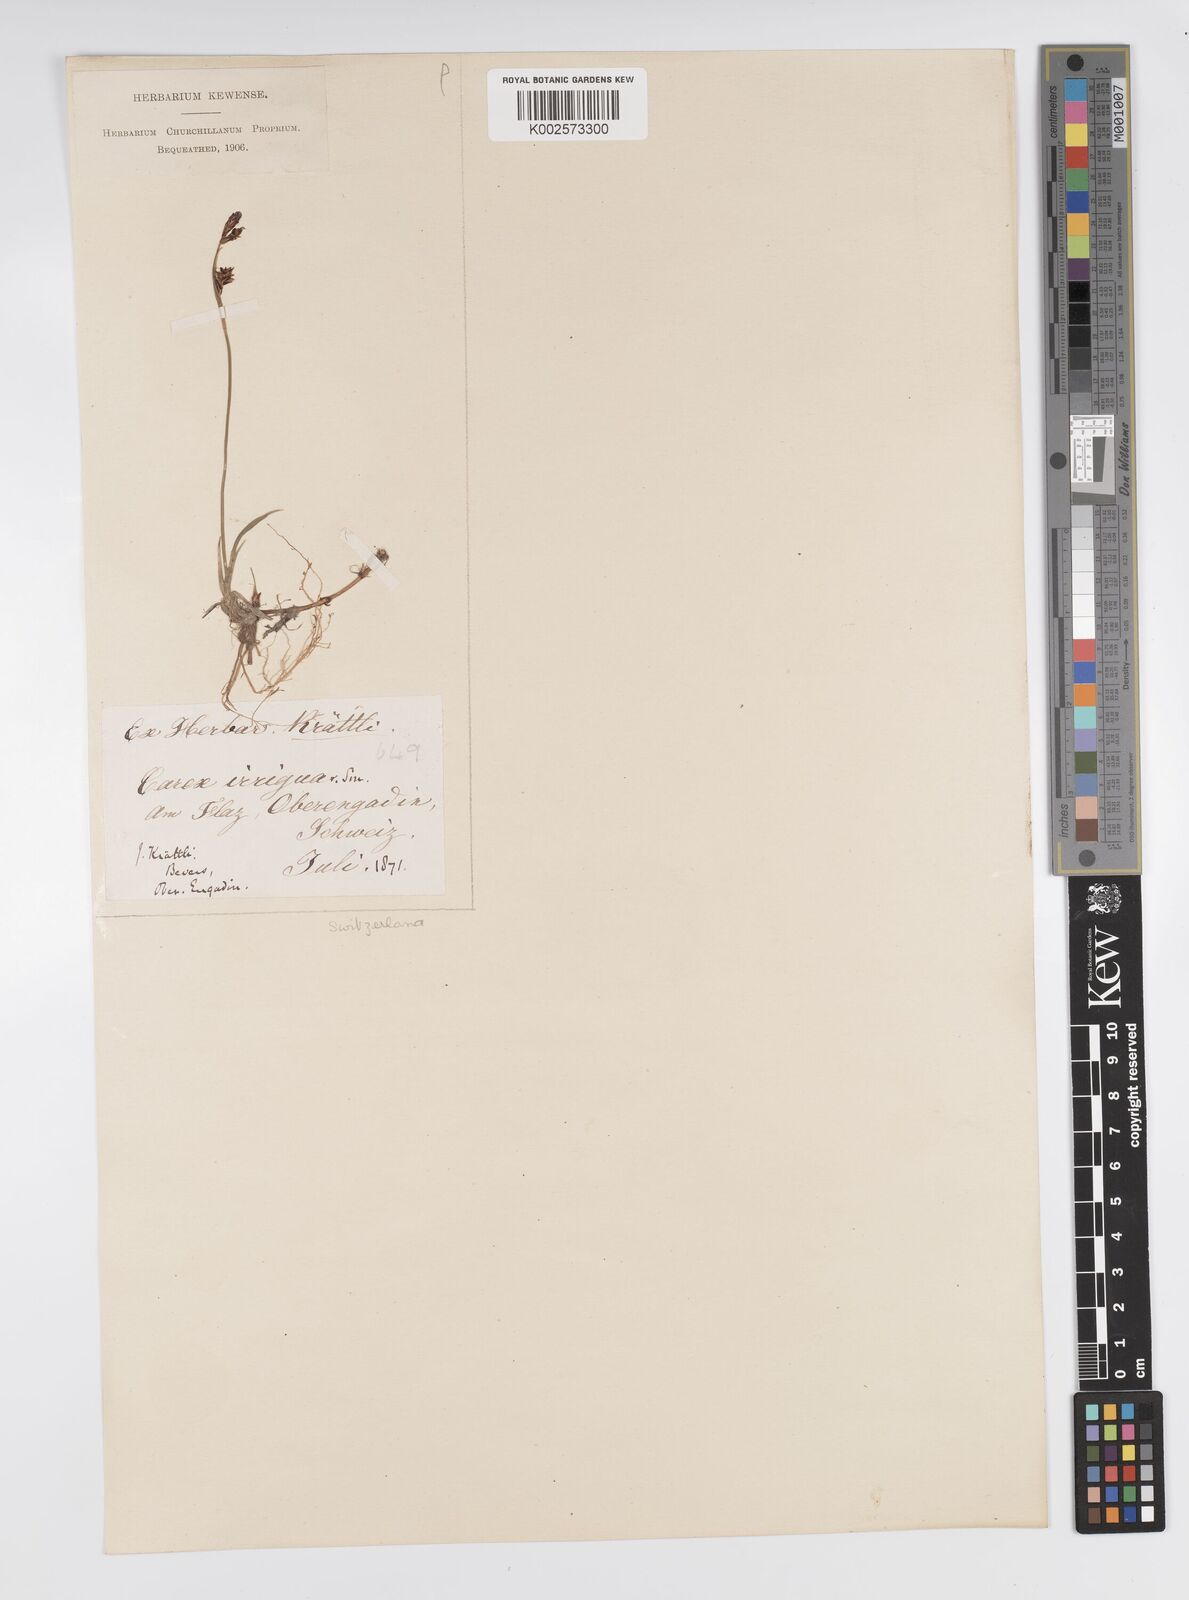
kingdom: Plantae
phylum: Tracheophyta
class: Liliopsida
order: Poales
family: Cyperaceae
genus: Carex
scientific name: Carex magellanica
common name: Bog sedge
